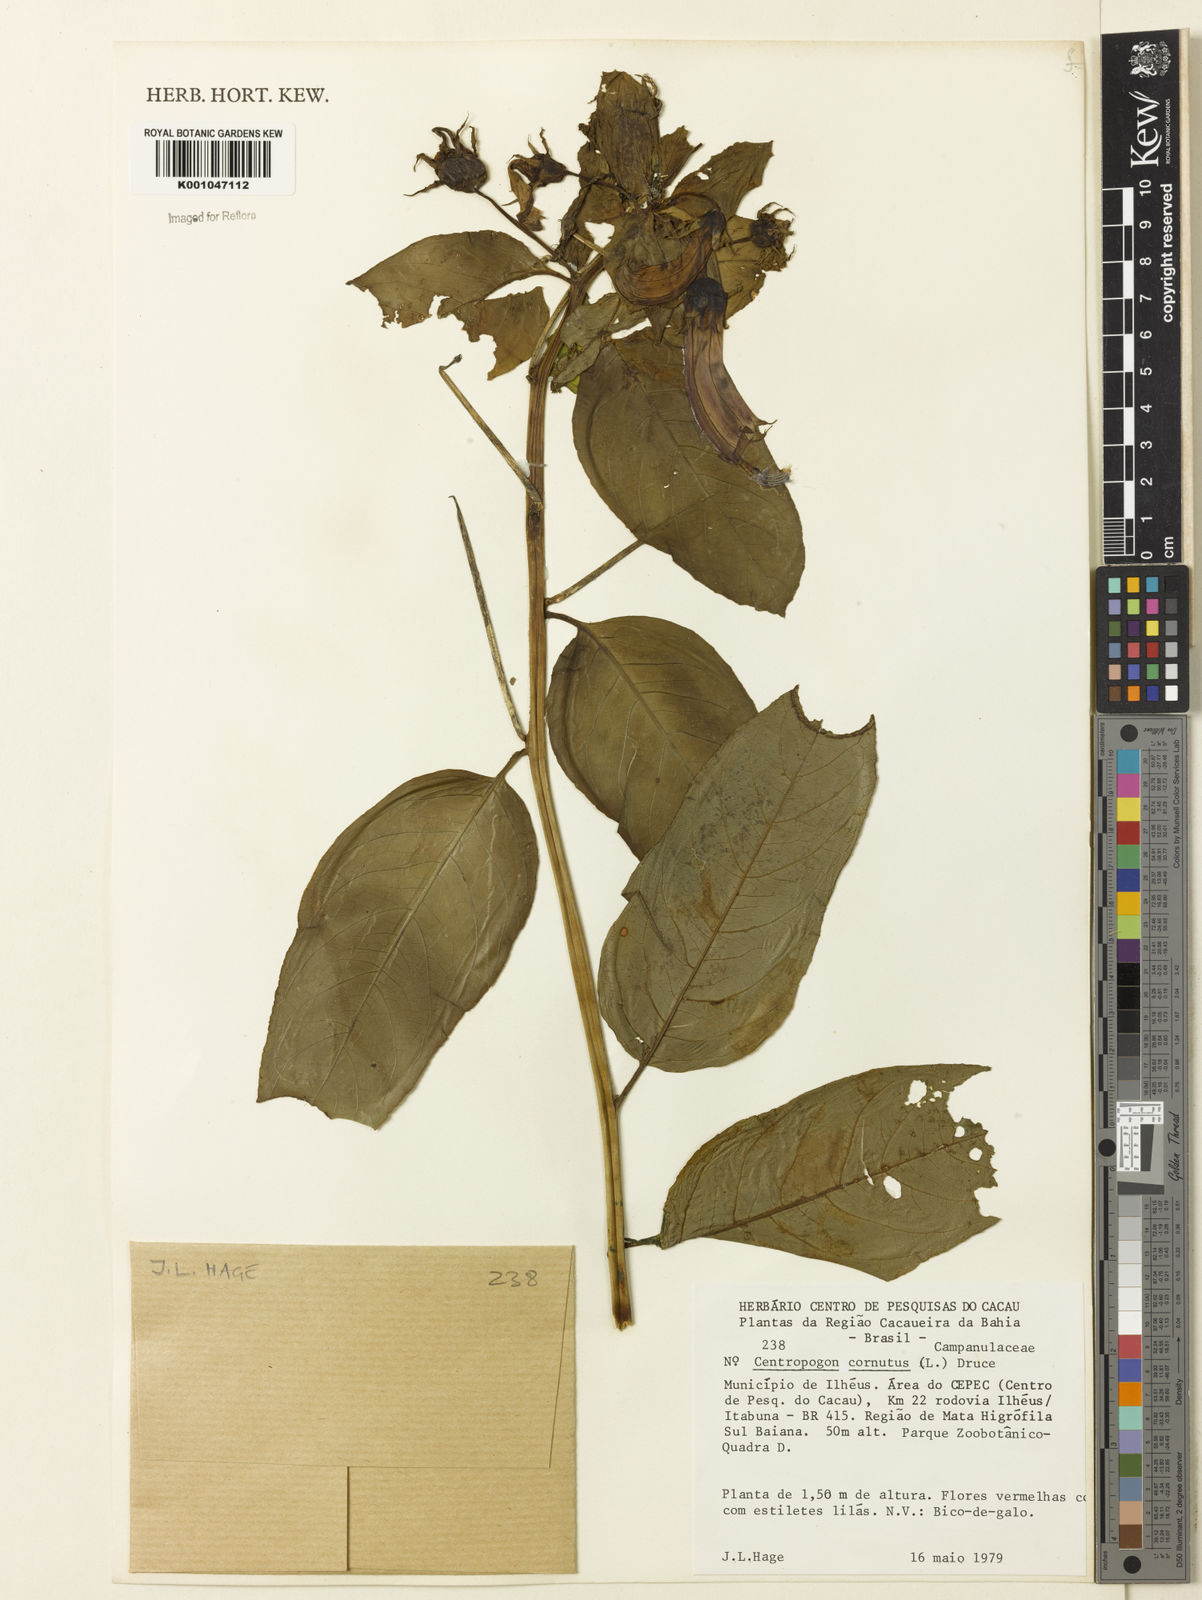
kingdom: Plantae
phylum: Tracheophyta
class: Magnoliopsida
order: Asterales
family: Campanulaceae
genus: Centropogon
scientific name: Centropogon cornutus
